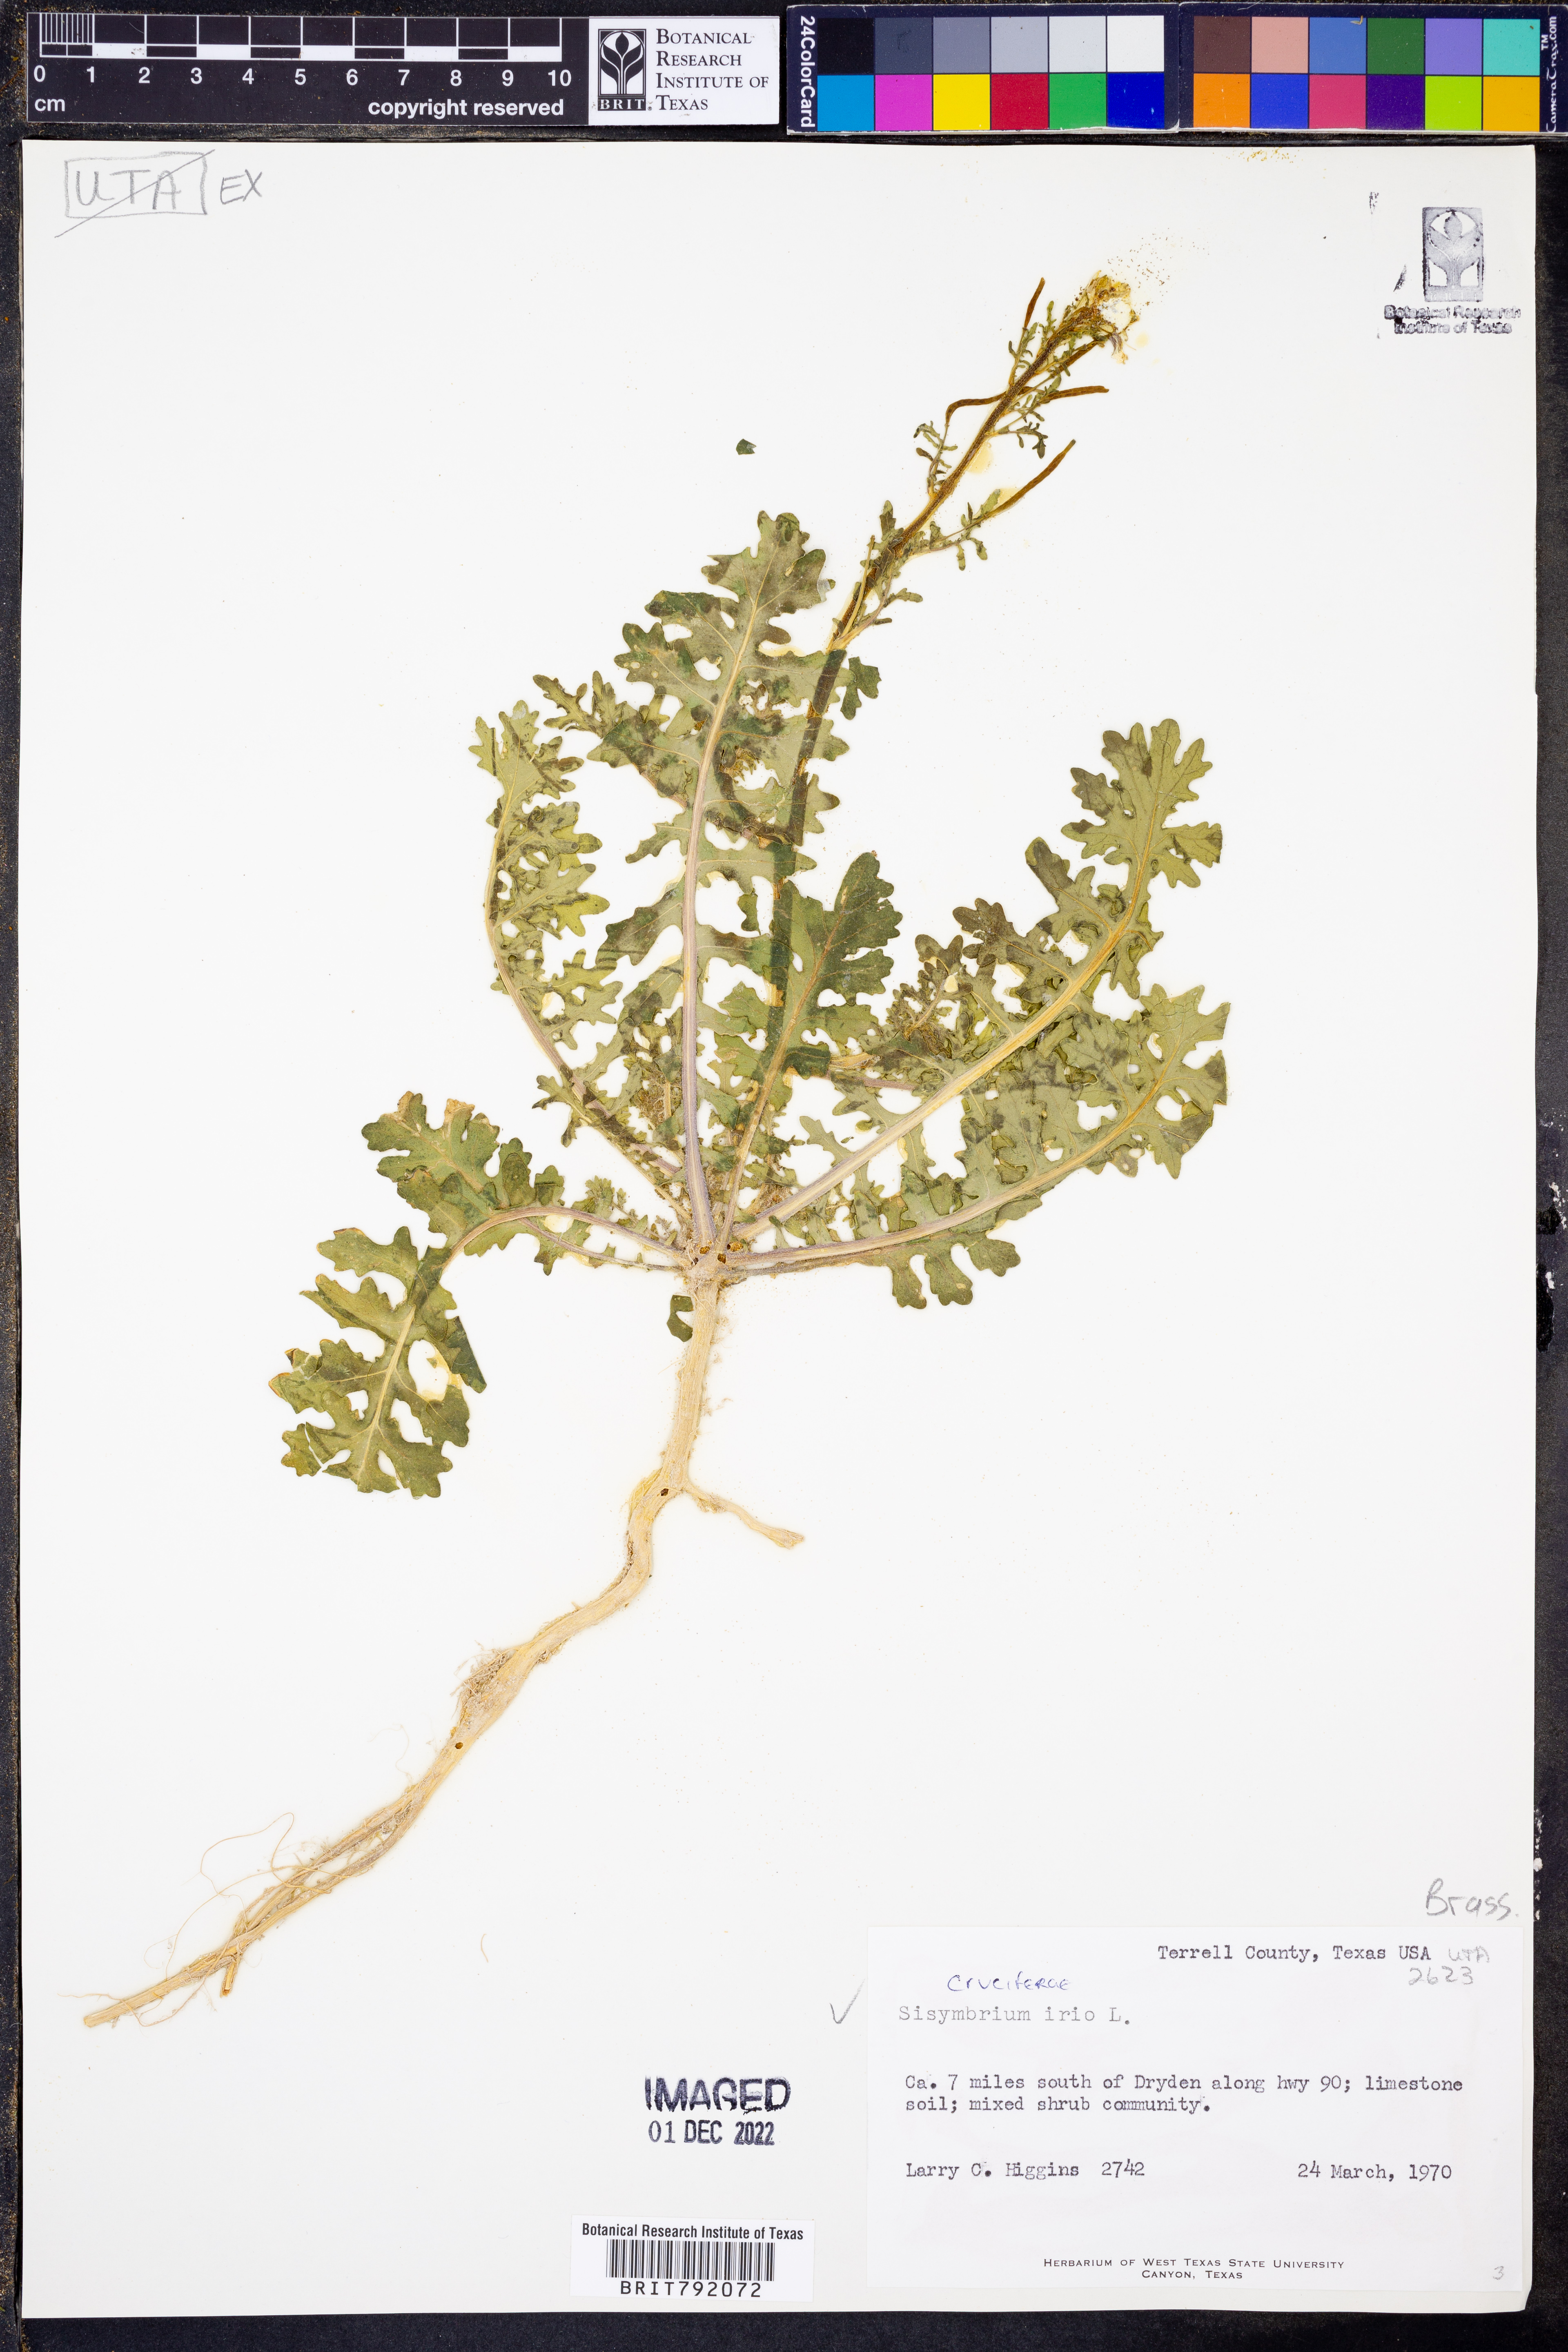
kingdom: Plantae
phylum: Tracheophyta
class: Magnoliopsida
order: Brassicales
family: Brassicaceae
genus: Sisymbrium
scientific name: Sisymbrium
